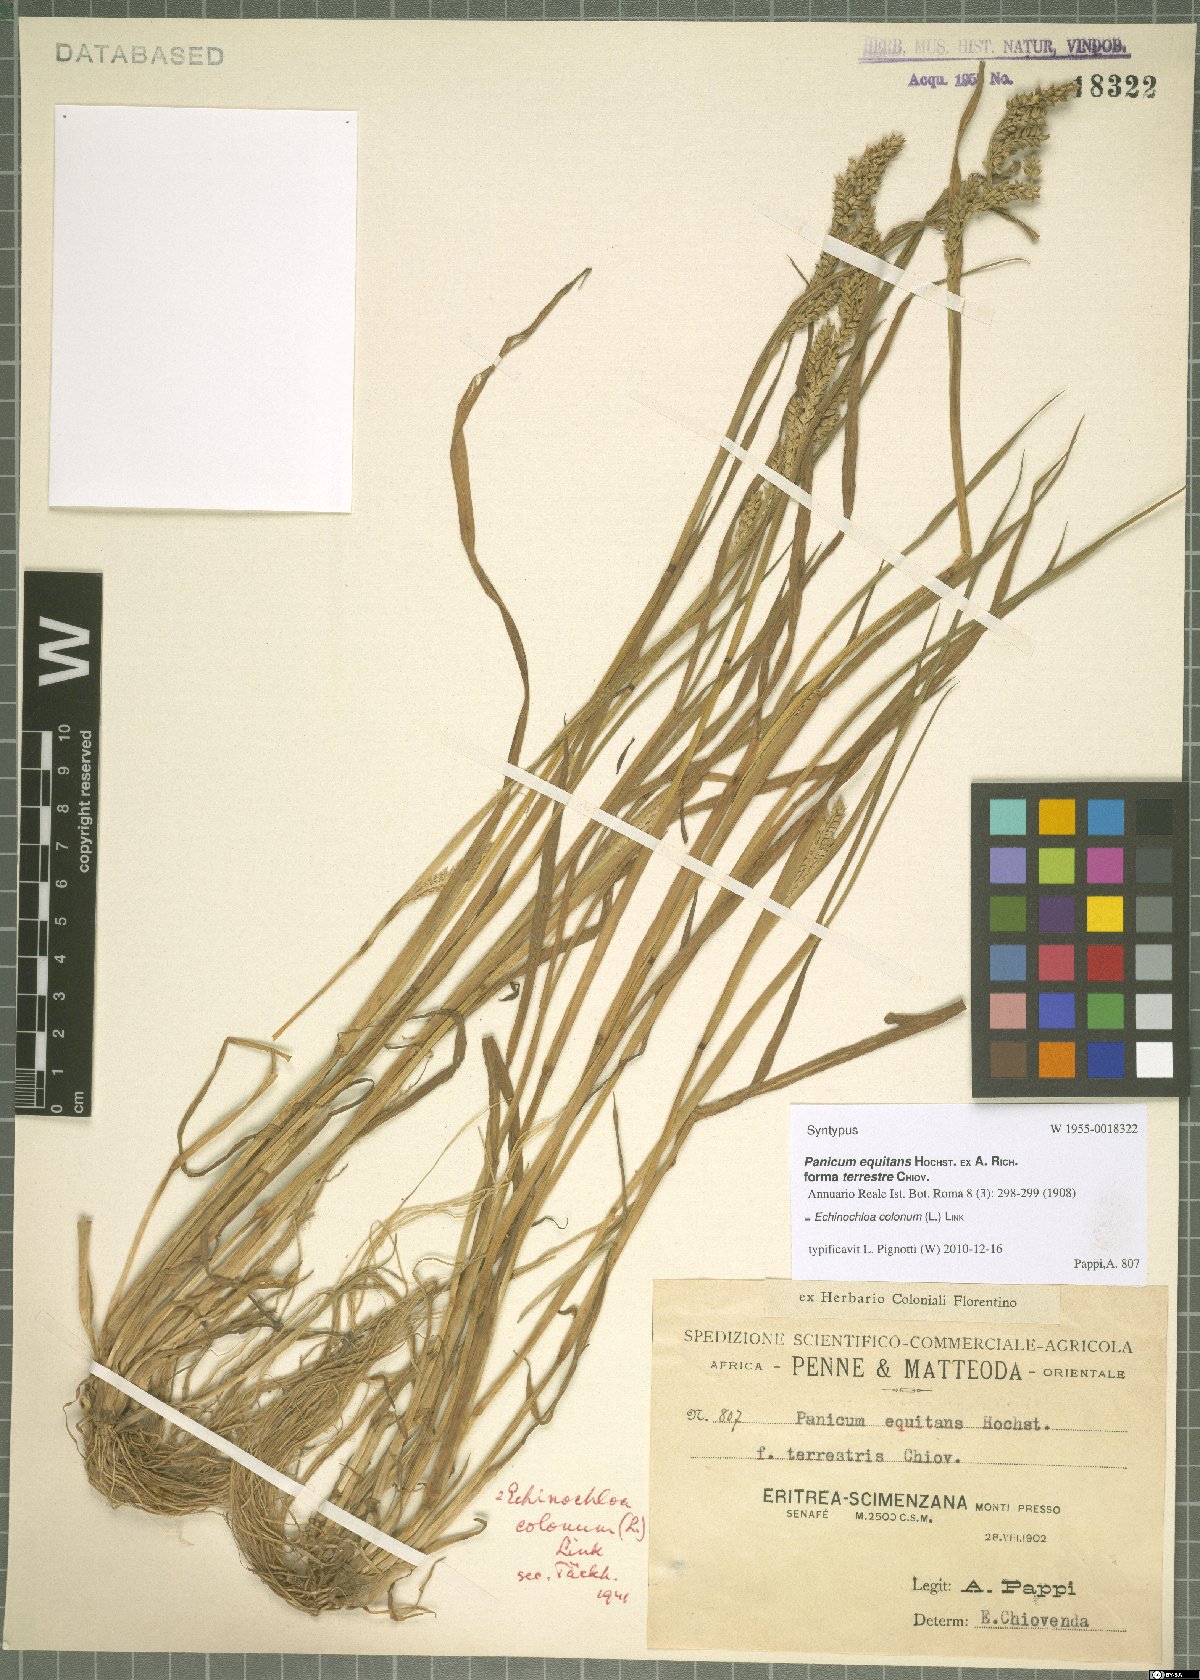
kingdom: Plantae
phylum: Tracheophyta
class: Liliopsida
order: Poales
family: Poaceae
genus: Echinochloa
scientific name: Echinochloa colonum
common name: Jungle rice
